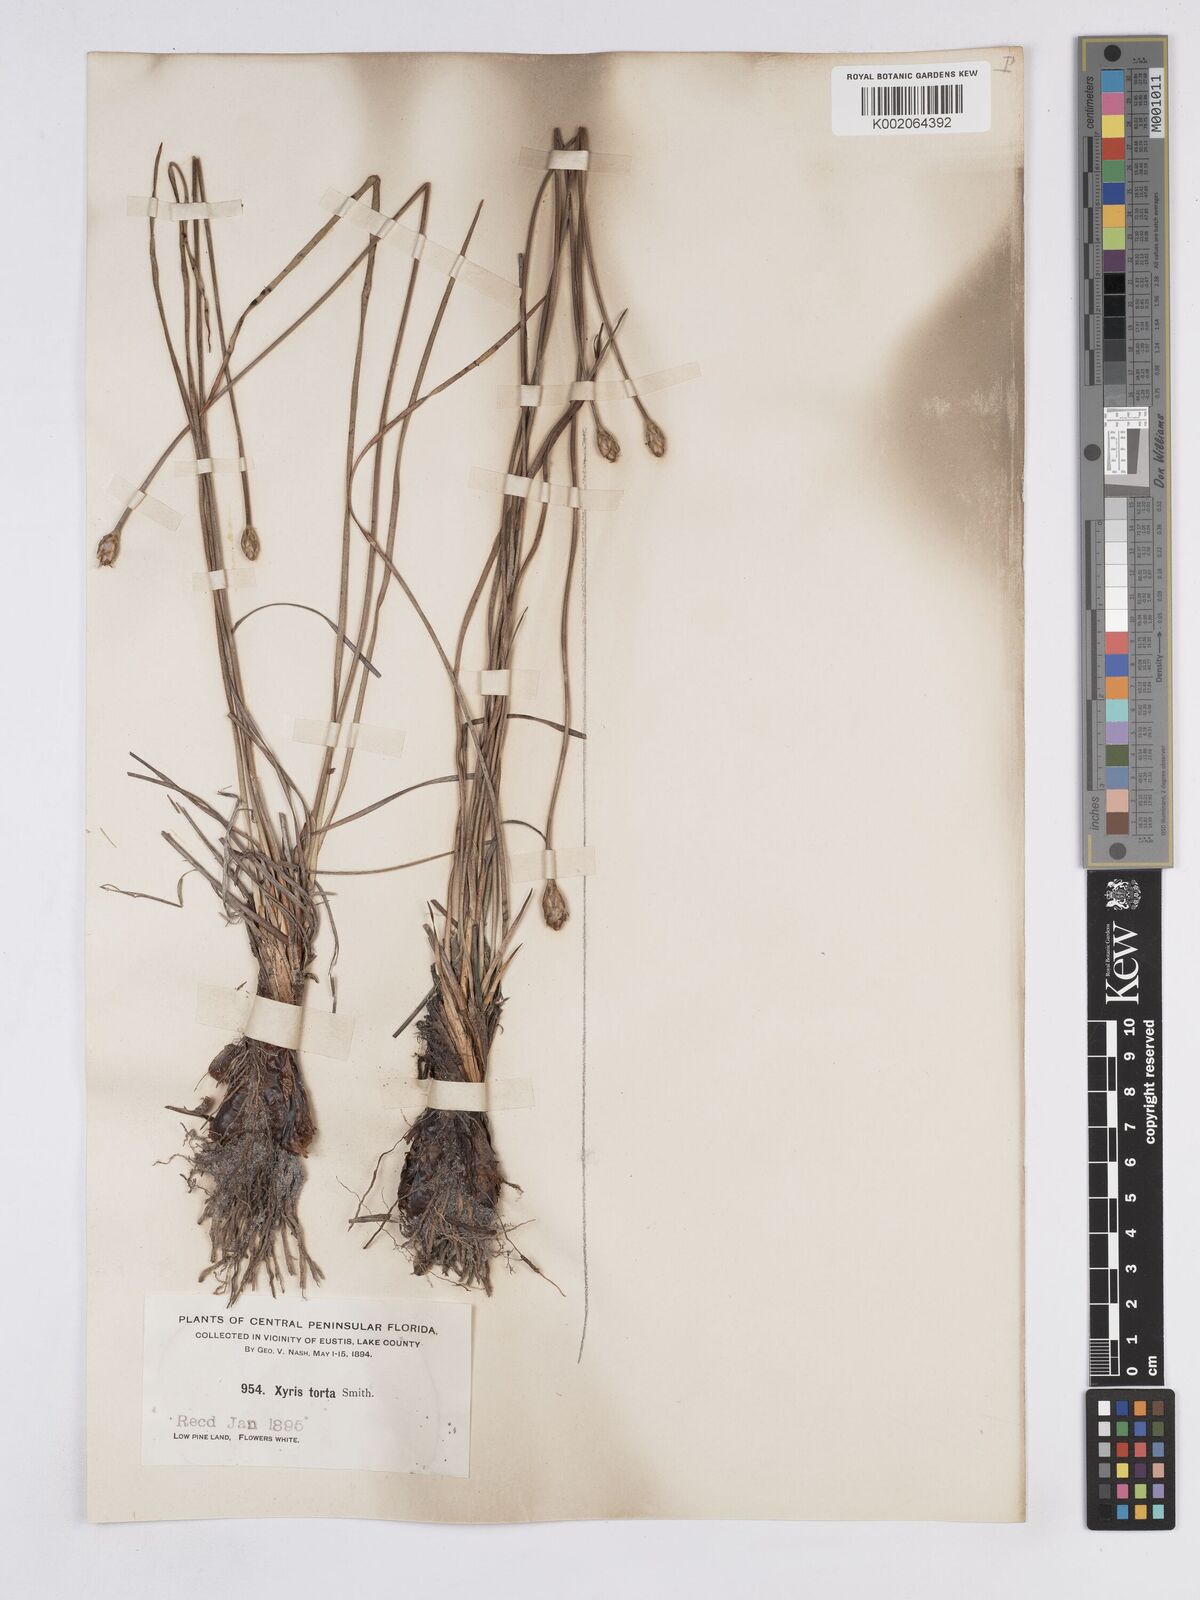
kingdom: Plantae
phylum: Tracheophyta
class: Liliopsida
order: Poales
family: Xyridaceae
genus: Xyris
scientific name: Xyris caroliniana
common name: Carolina yellow-eyed-grass
